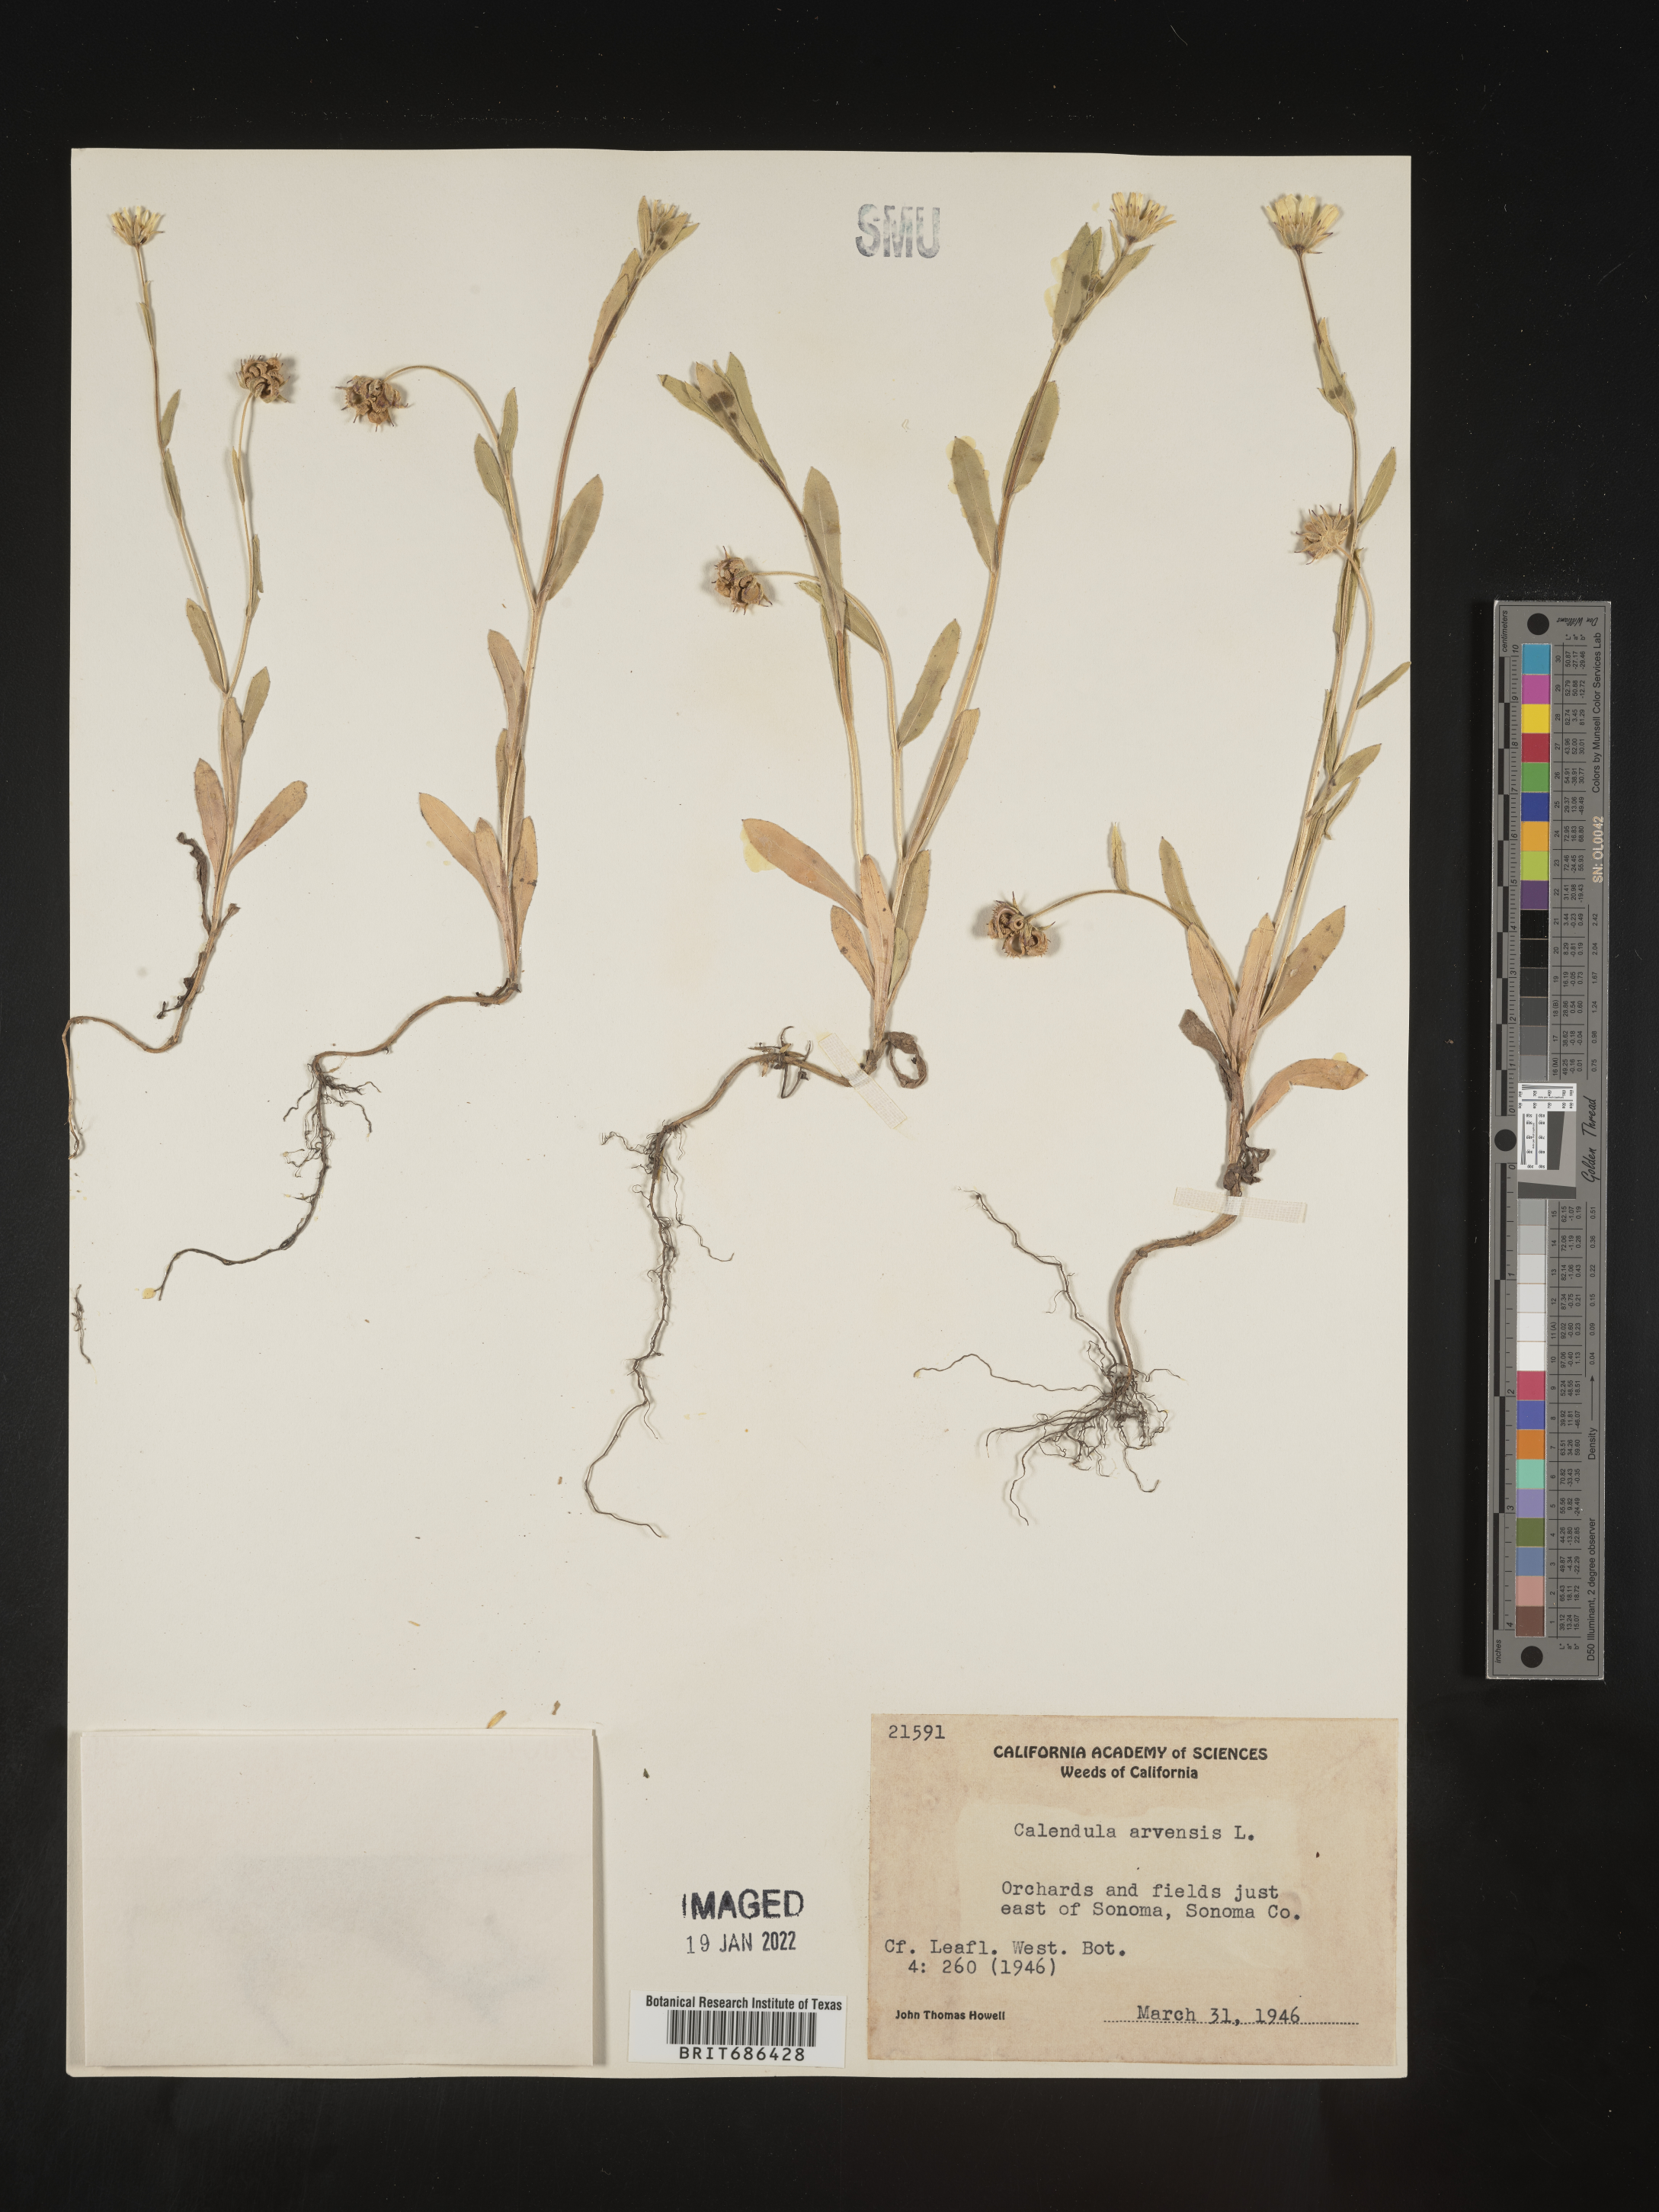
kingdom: Plantae
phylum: Tracheophyta
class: Magnoliopsida
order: Asterales
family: Asteraceae
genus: Calendula
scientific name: Calendula
